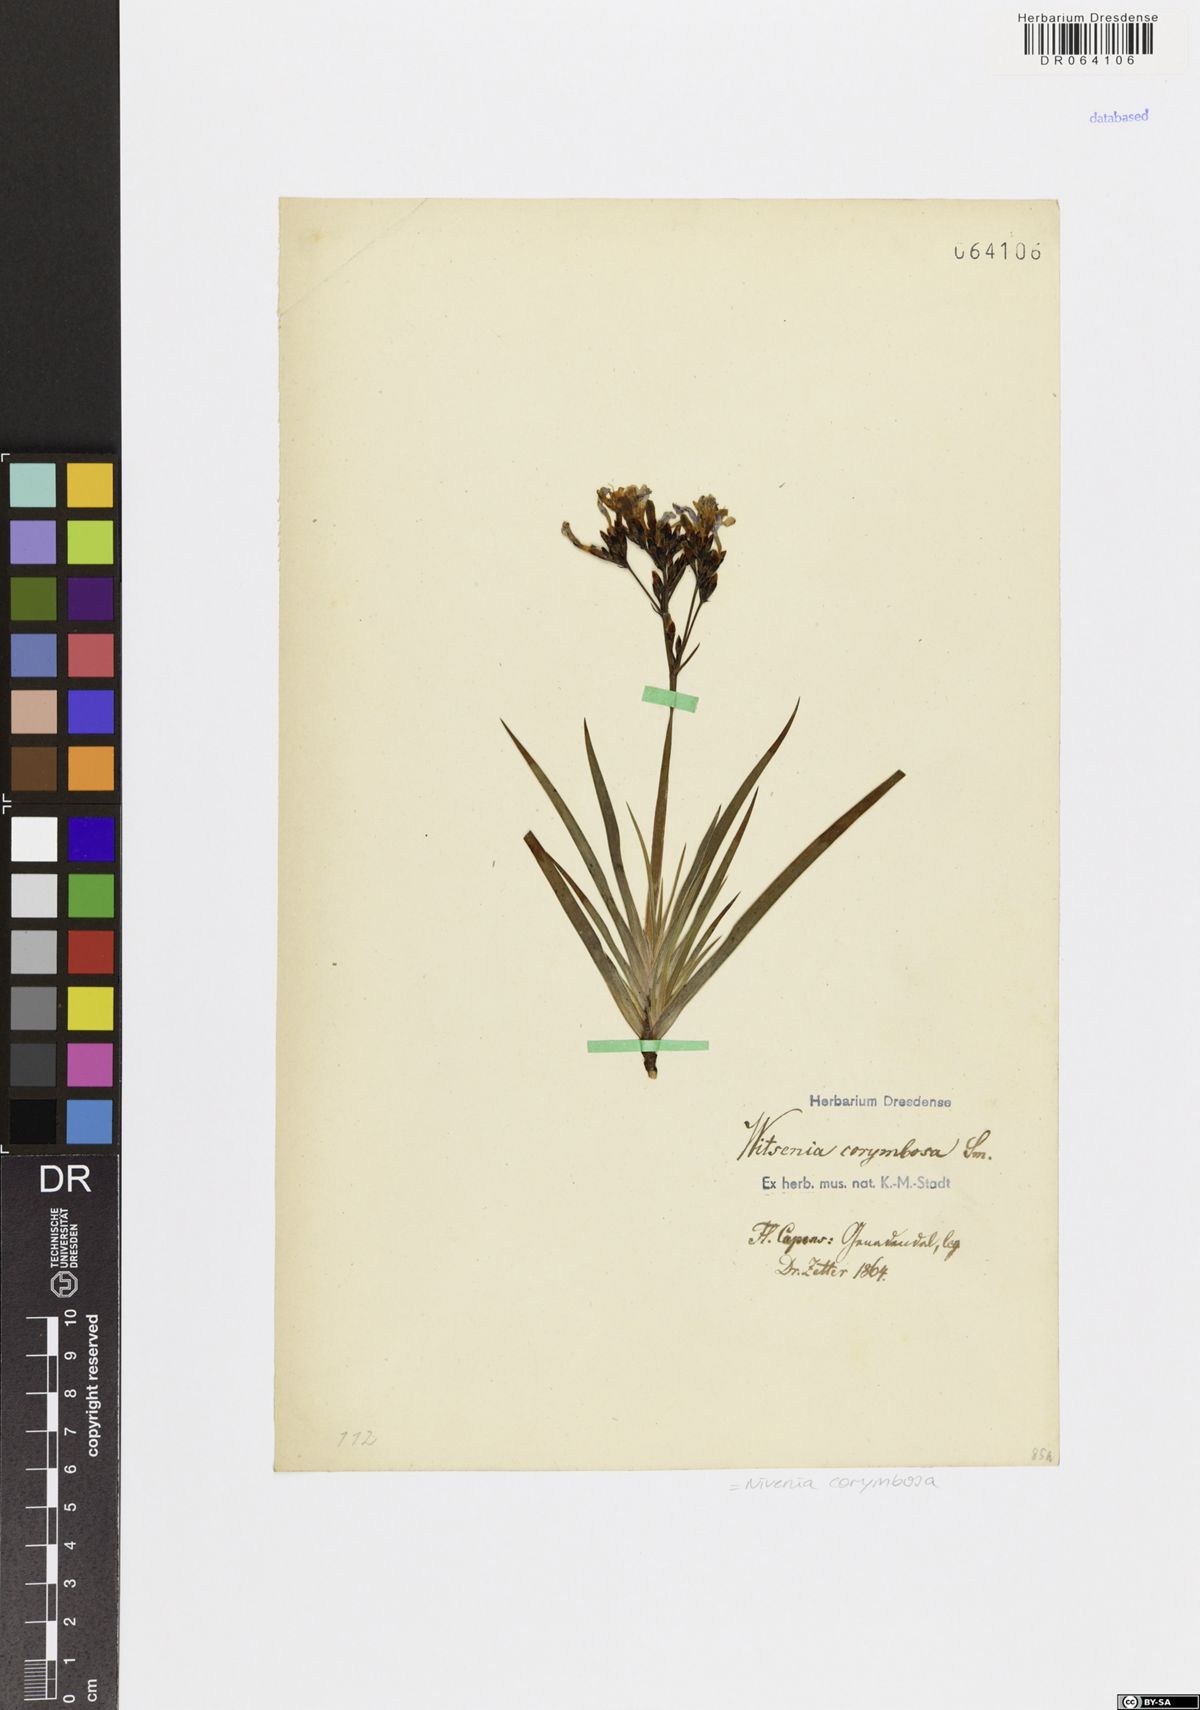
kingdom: Plantae
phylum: Tracheophyta
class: Liliopsida
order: Asparagales
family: Iridaceae
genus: Nivenia
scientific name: Nivenia corymbosa
